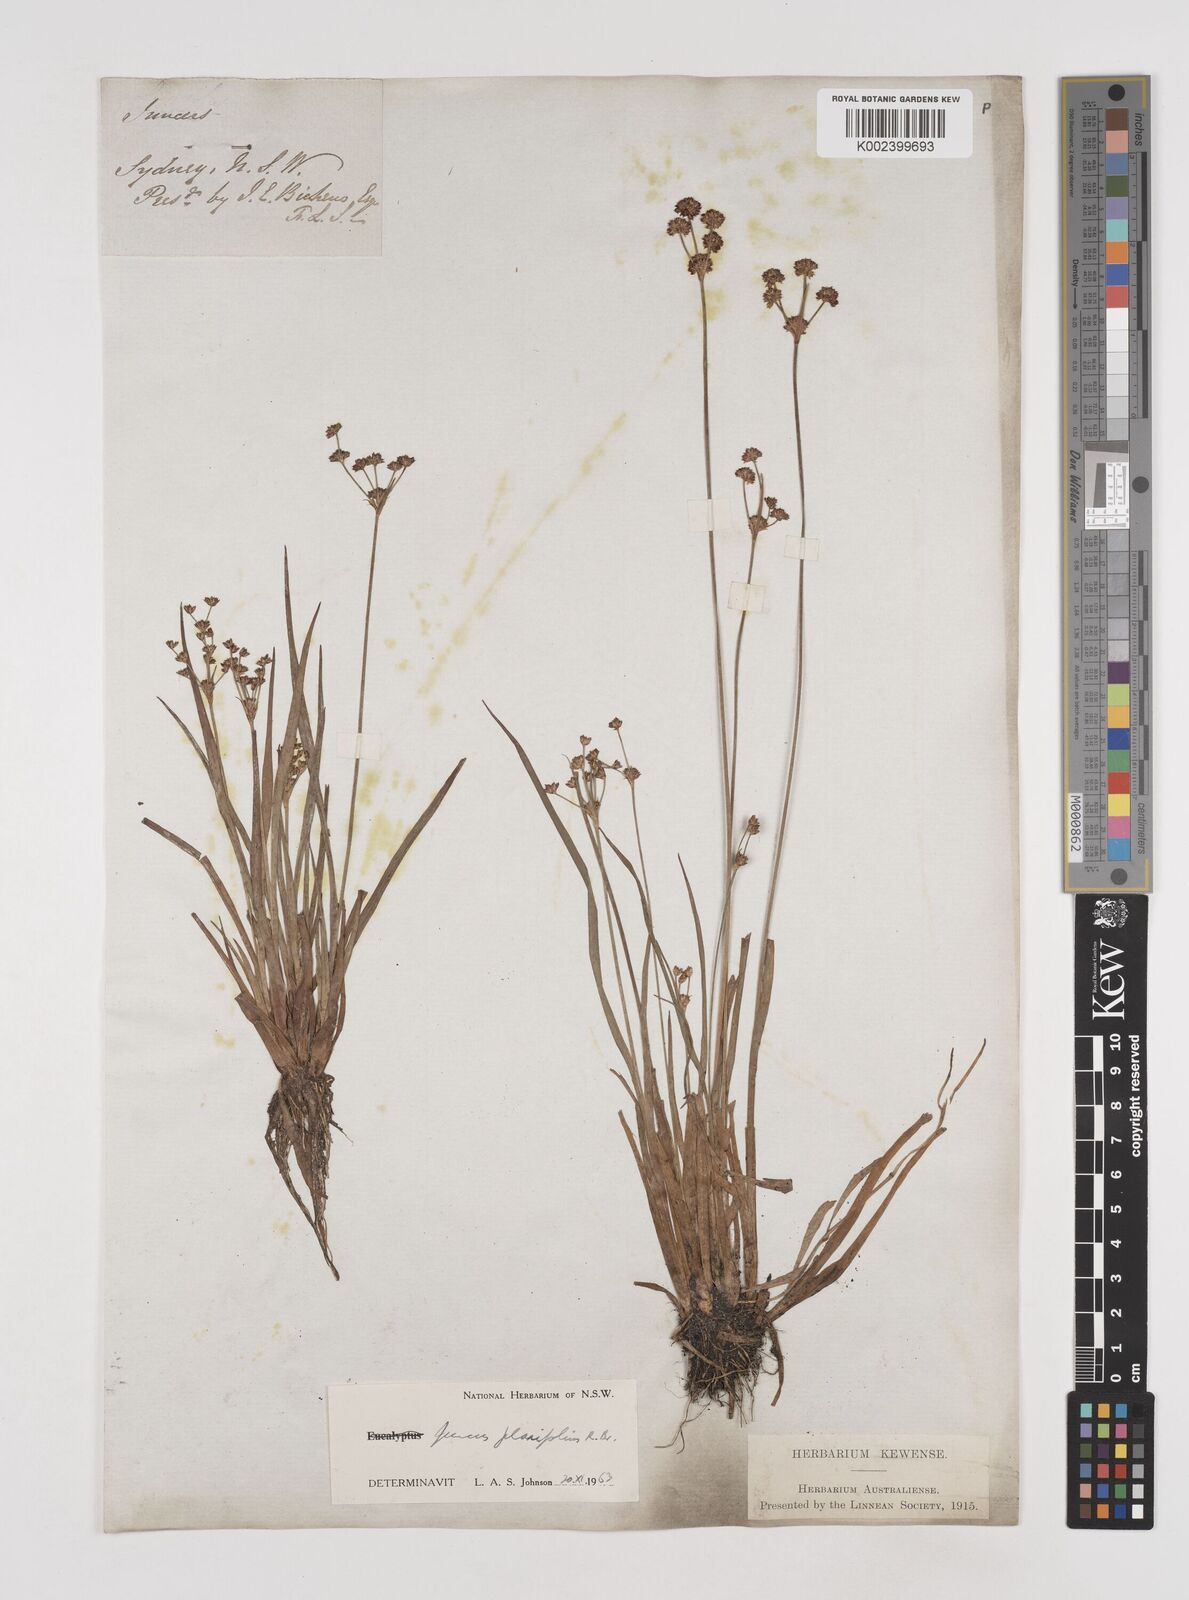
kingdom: Plantae
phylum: Tracheophyta
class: Liliopsida
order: Poales
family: Juncaceae
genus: Juncus
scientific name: Juncus planifolius
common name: Broadleaf rush
